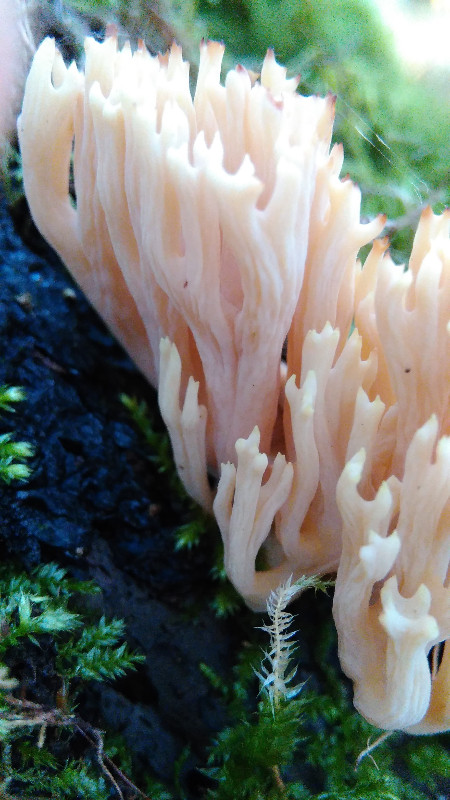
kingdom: Fungi
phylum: Basidiomycota
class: Agaricomycetes
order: Gomphales
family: Gomphaceae
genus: Ramaria
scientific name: Ramaria stricta
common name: rank koralsvamp
